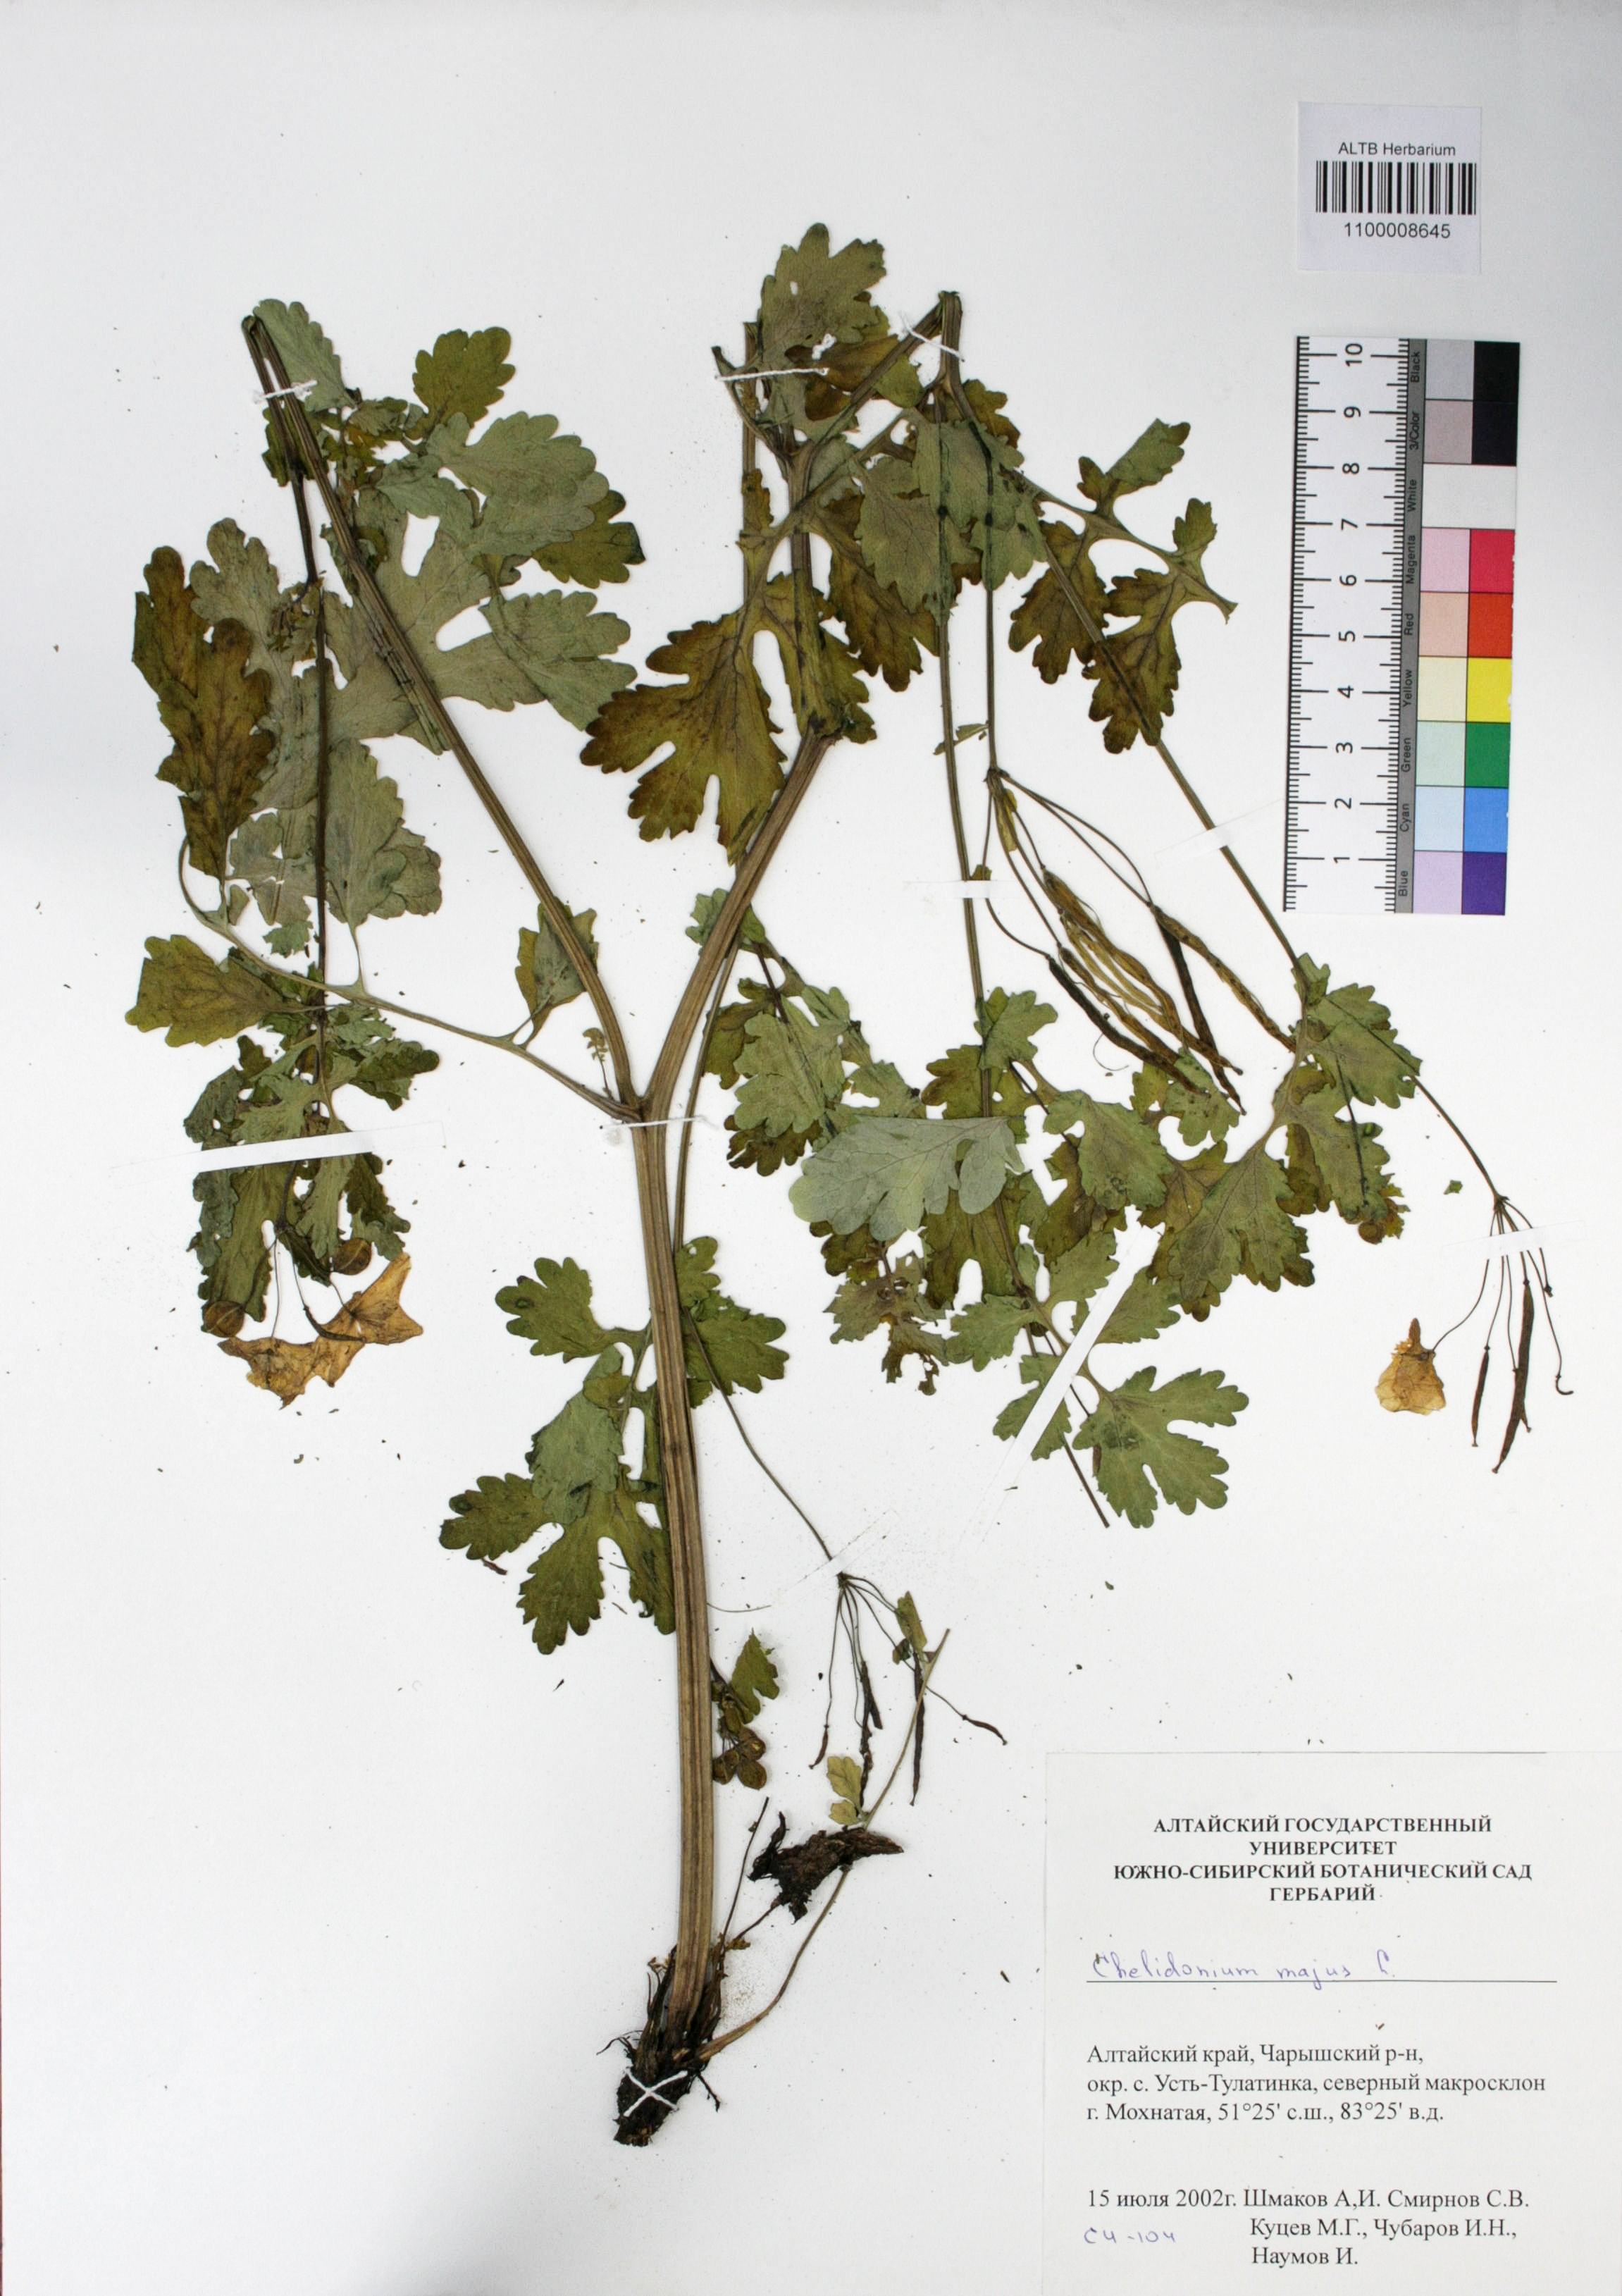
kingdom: Plantae
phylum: Tracheophyta
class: Magnoliopsida
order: Ranunculales
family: Papaveraceae
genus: Chelidonium
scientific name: Chelidonium majus
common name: Greater celandine
